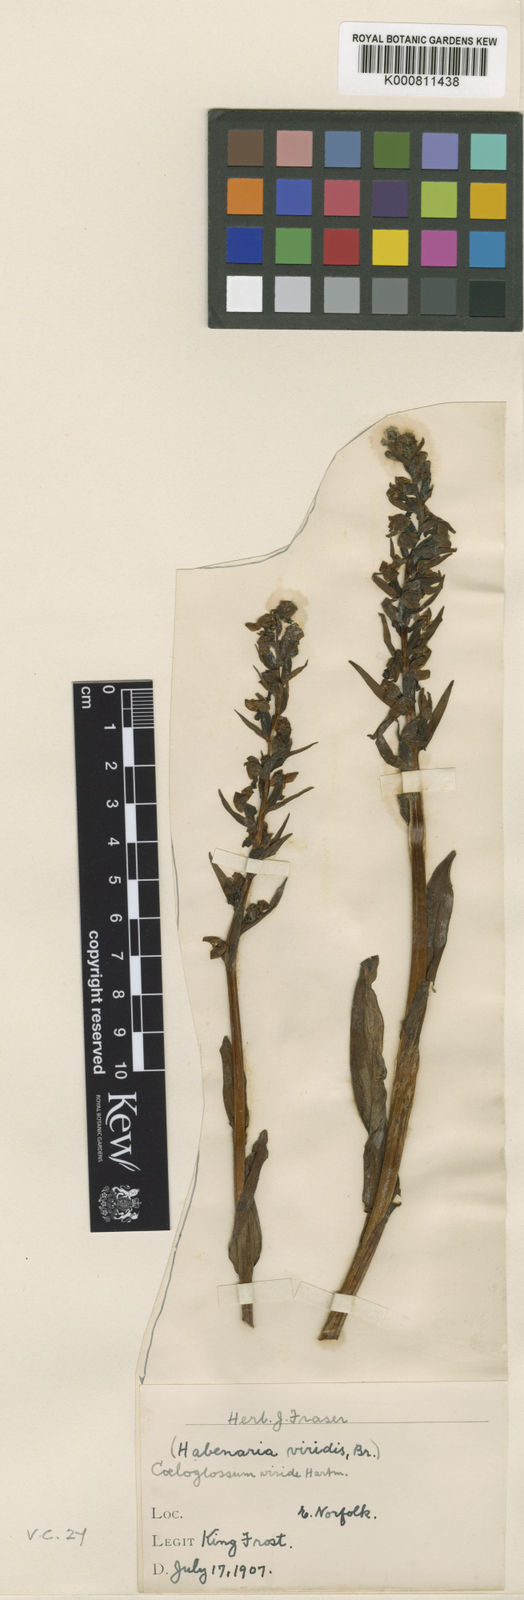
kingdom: Plantae
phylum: Tracheophyta
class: Liliopsida
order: Asparagales
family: Orchidaceae
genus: Dactylorhiza
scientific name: Dactylorhiza viridis
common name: Longbract frog orchid
